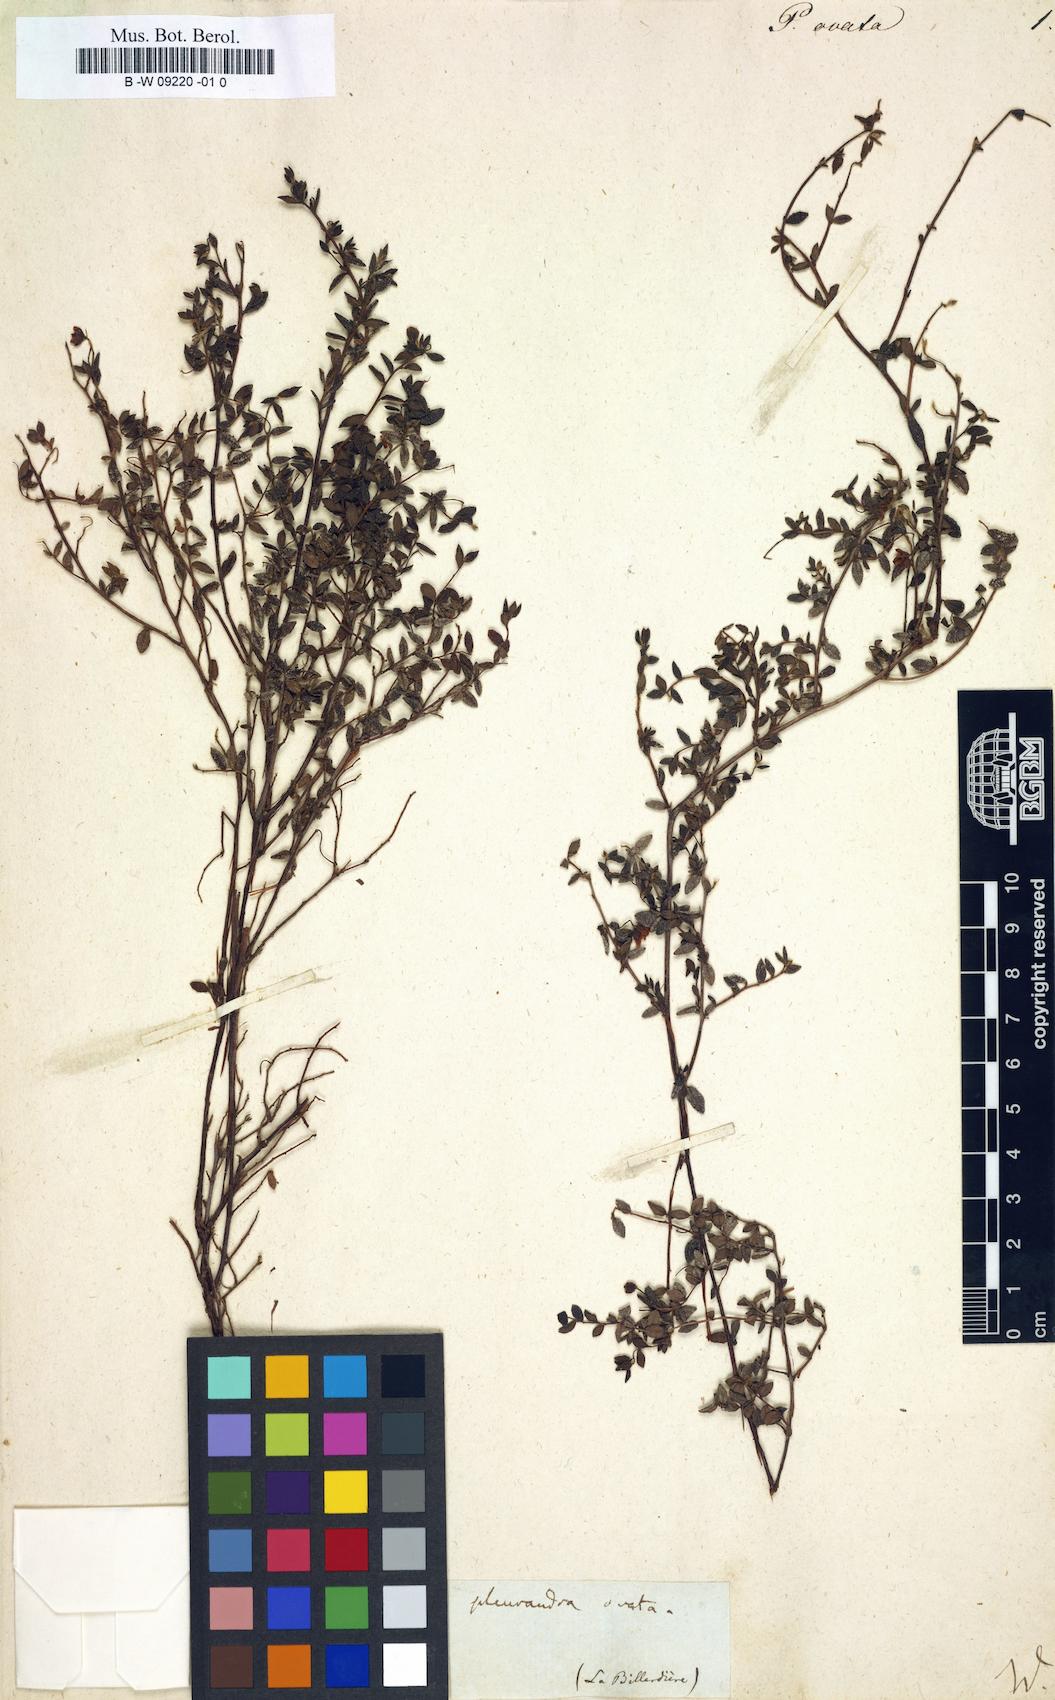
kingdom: Plantae
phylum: Tracheophyta
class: Magnoliopsida
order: Dilleniales
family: Dilleniaceae
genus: Hibbertia
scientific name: Hibbertia aspera
